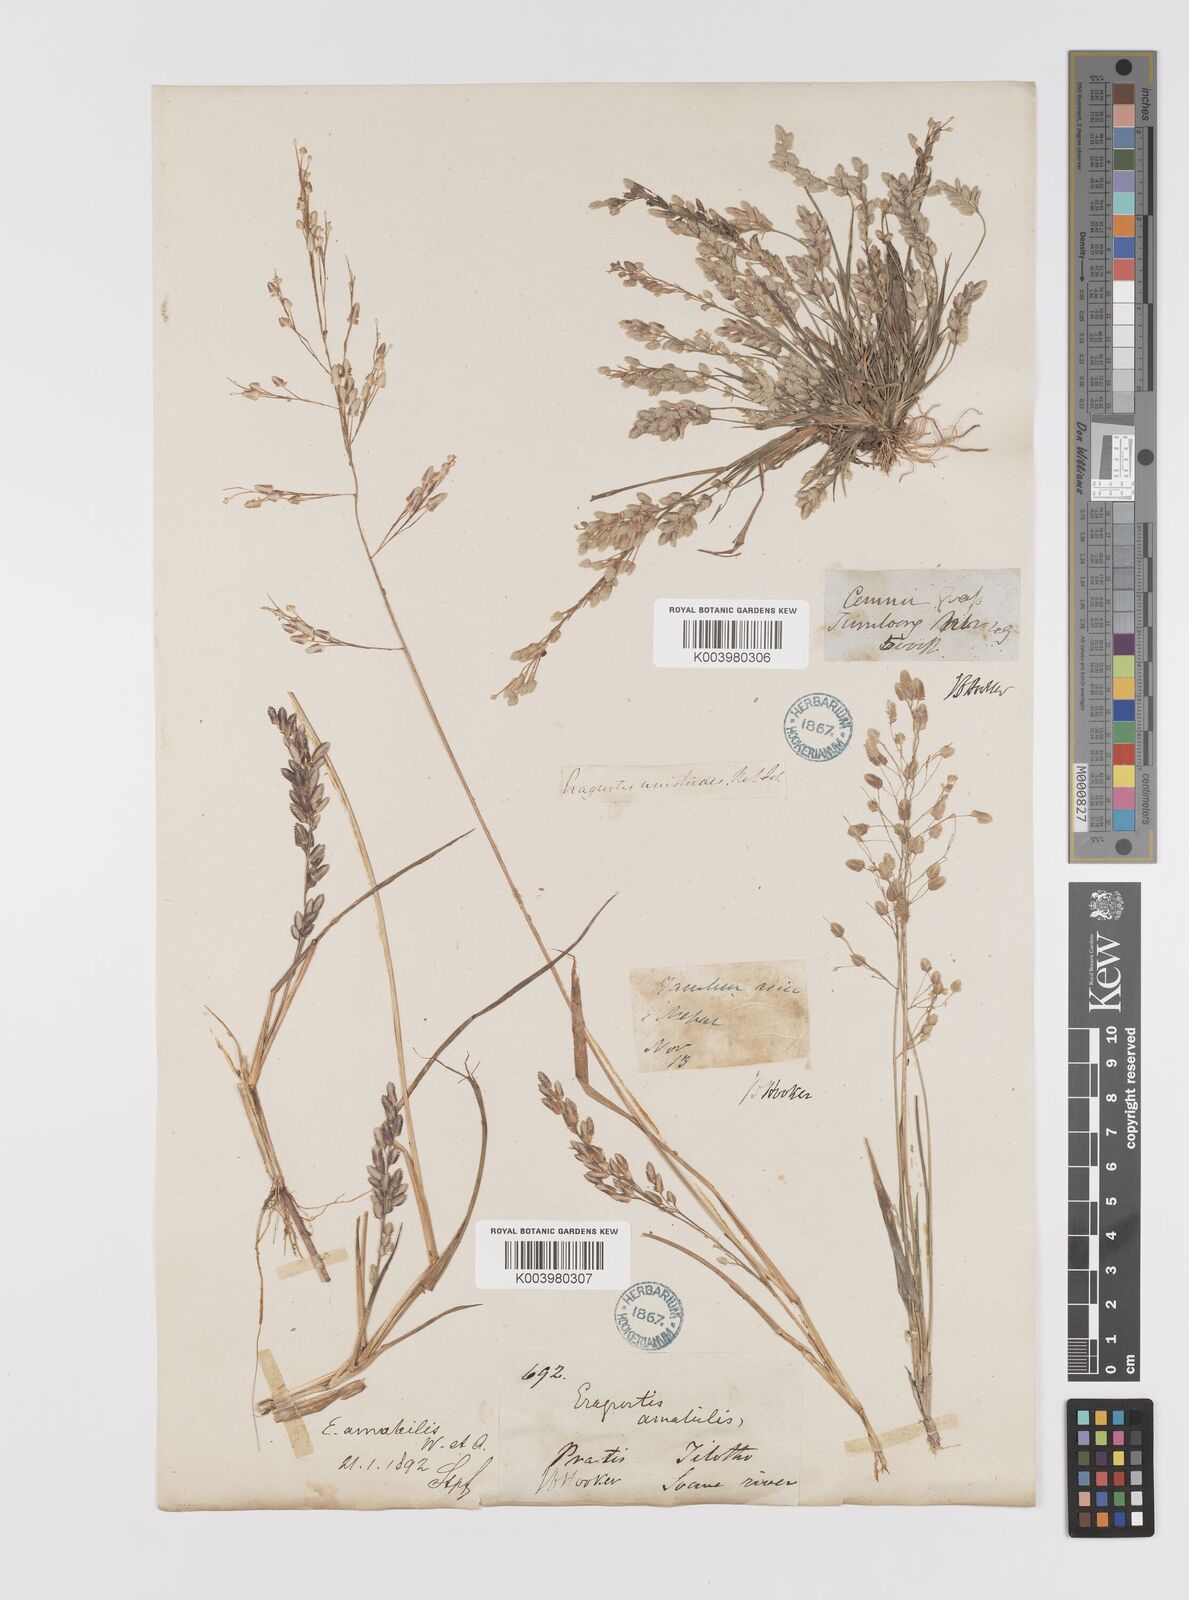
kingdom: Plantae
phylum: Tracheophyta
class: Liliopsida
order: Poales
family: Poaceae
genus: Eragrostis
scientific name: Eragrostis viscosa
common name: Sticky love grass
